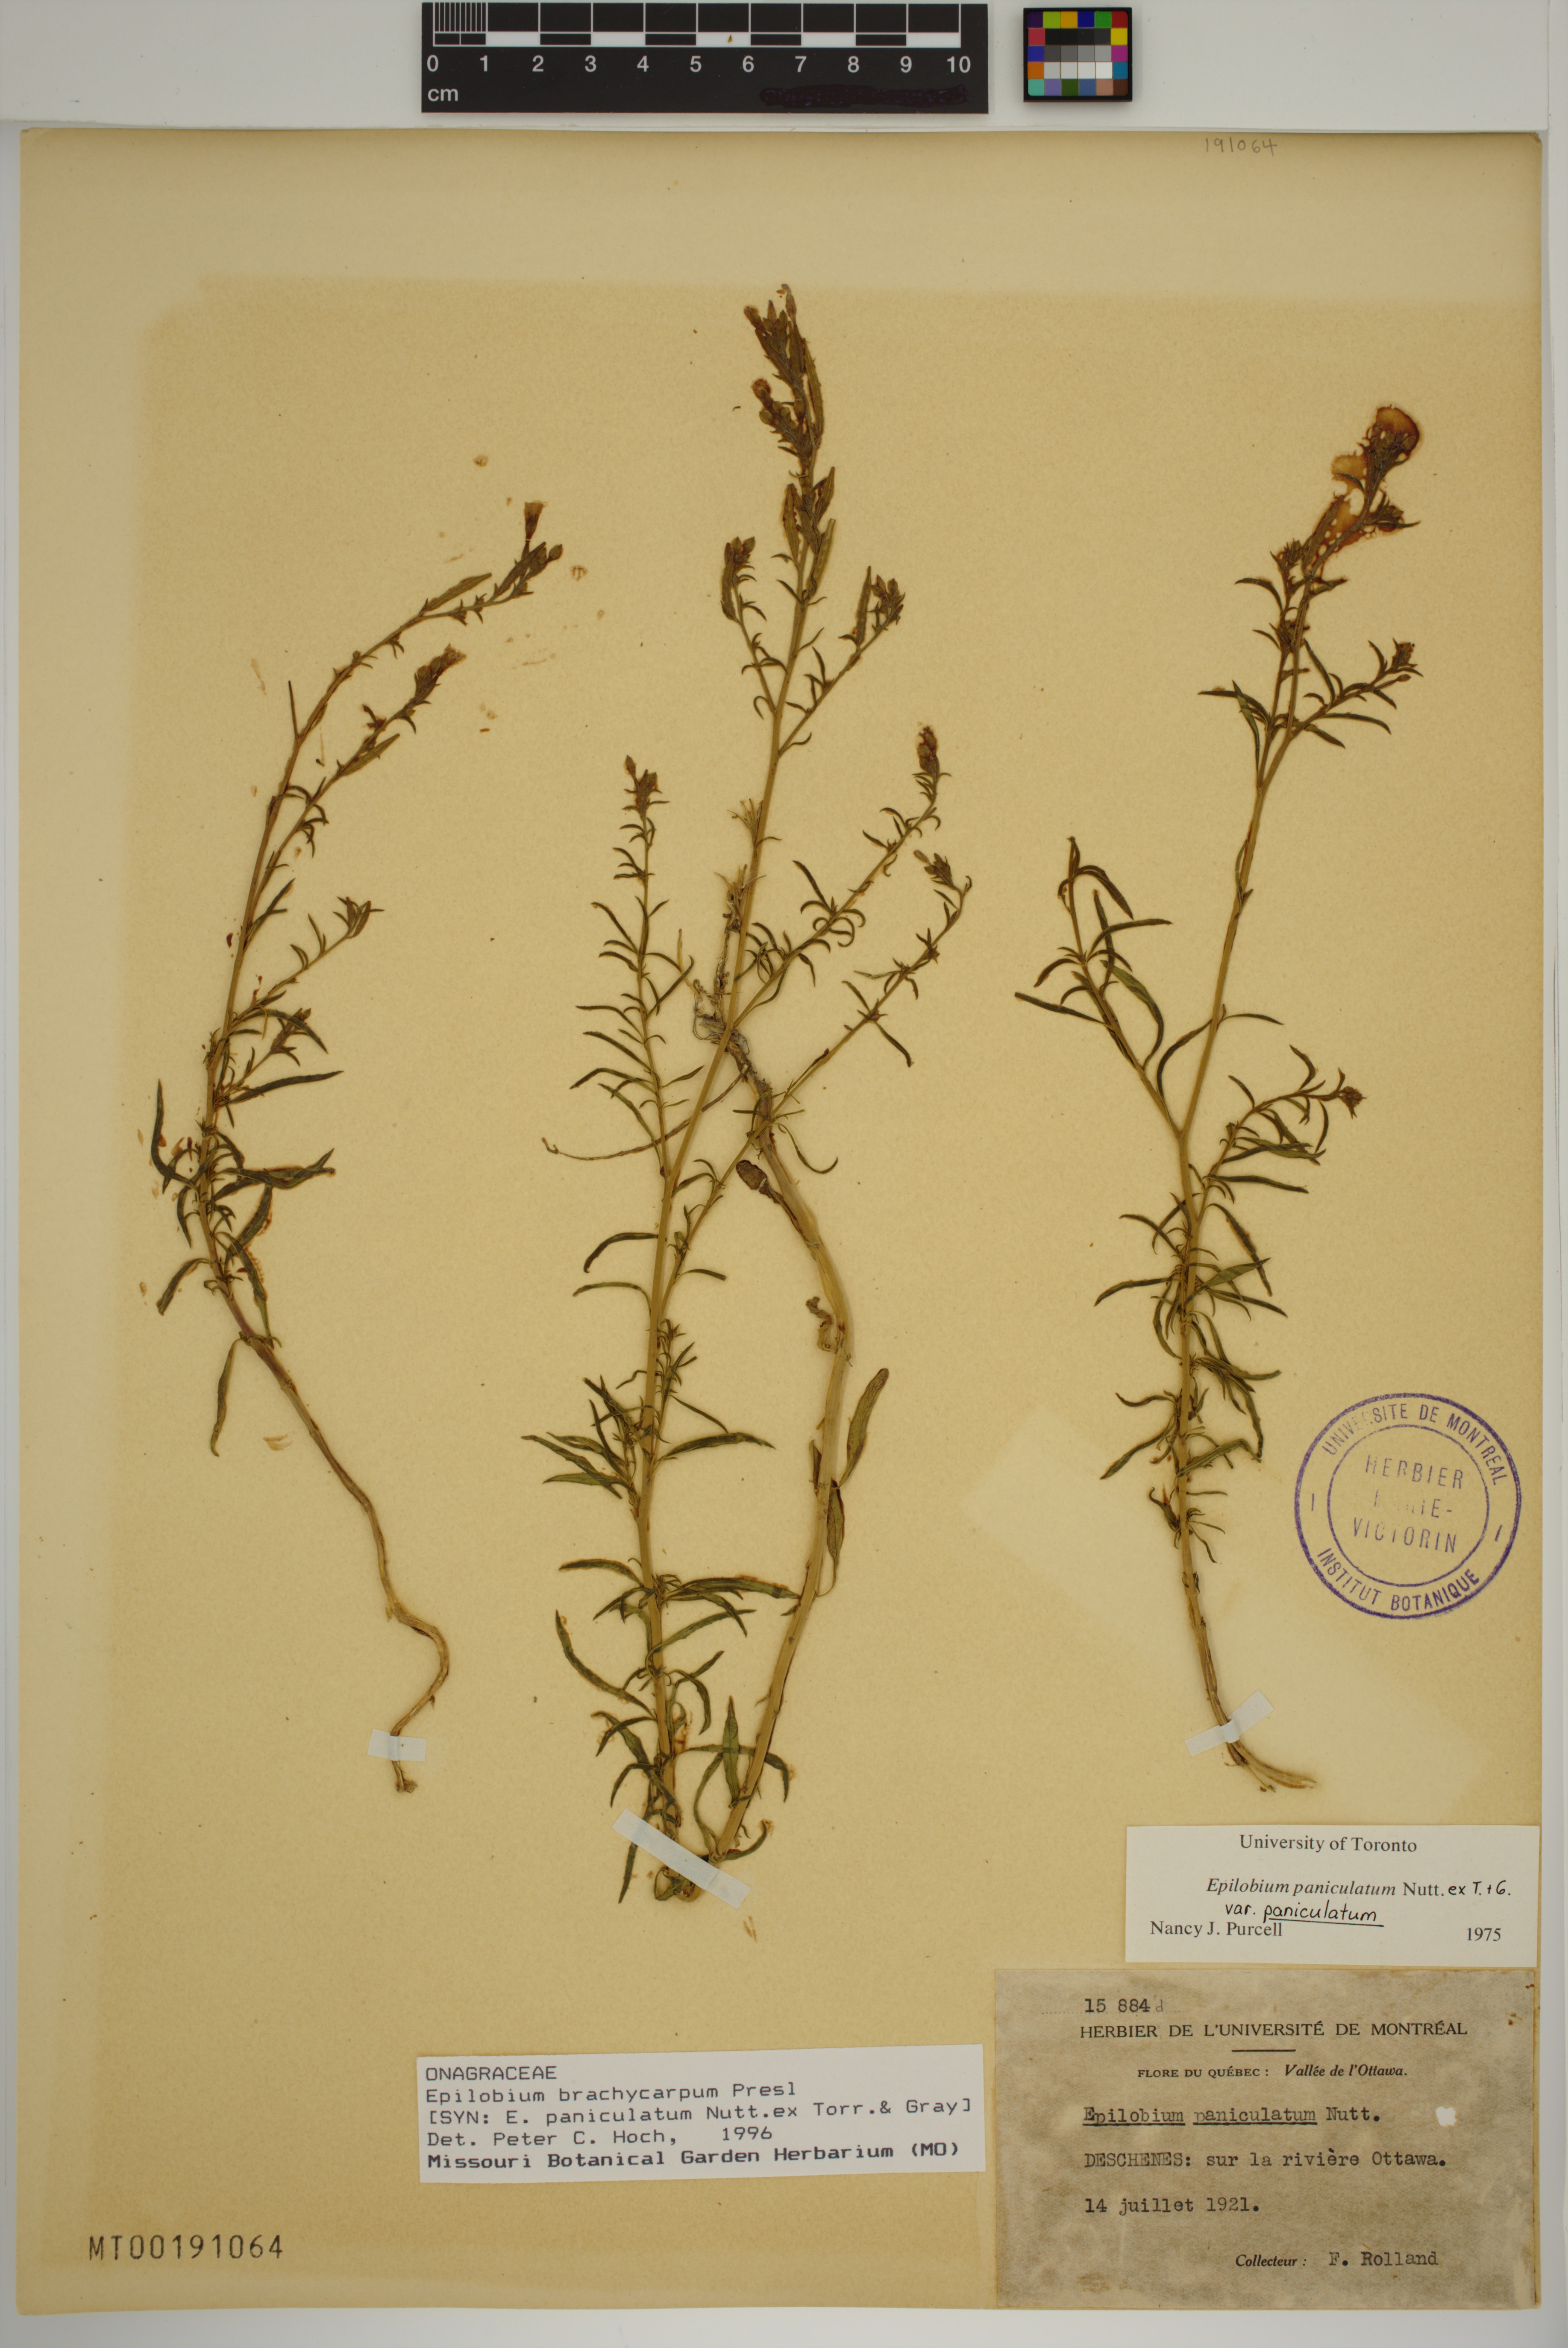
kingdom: Plantae
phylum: Tracheophyta
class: Magnoliopsida
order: Myrtales
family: Onagraceae
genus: Epilobium
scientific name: Epilobium brachycarpum
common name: Annual willowherb
